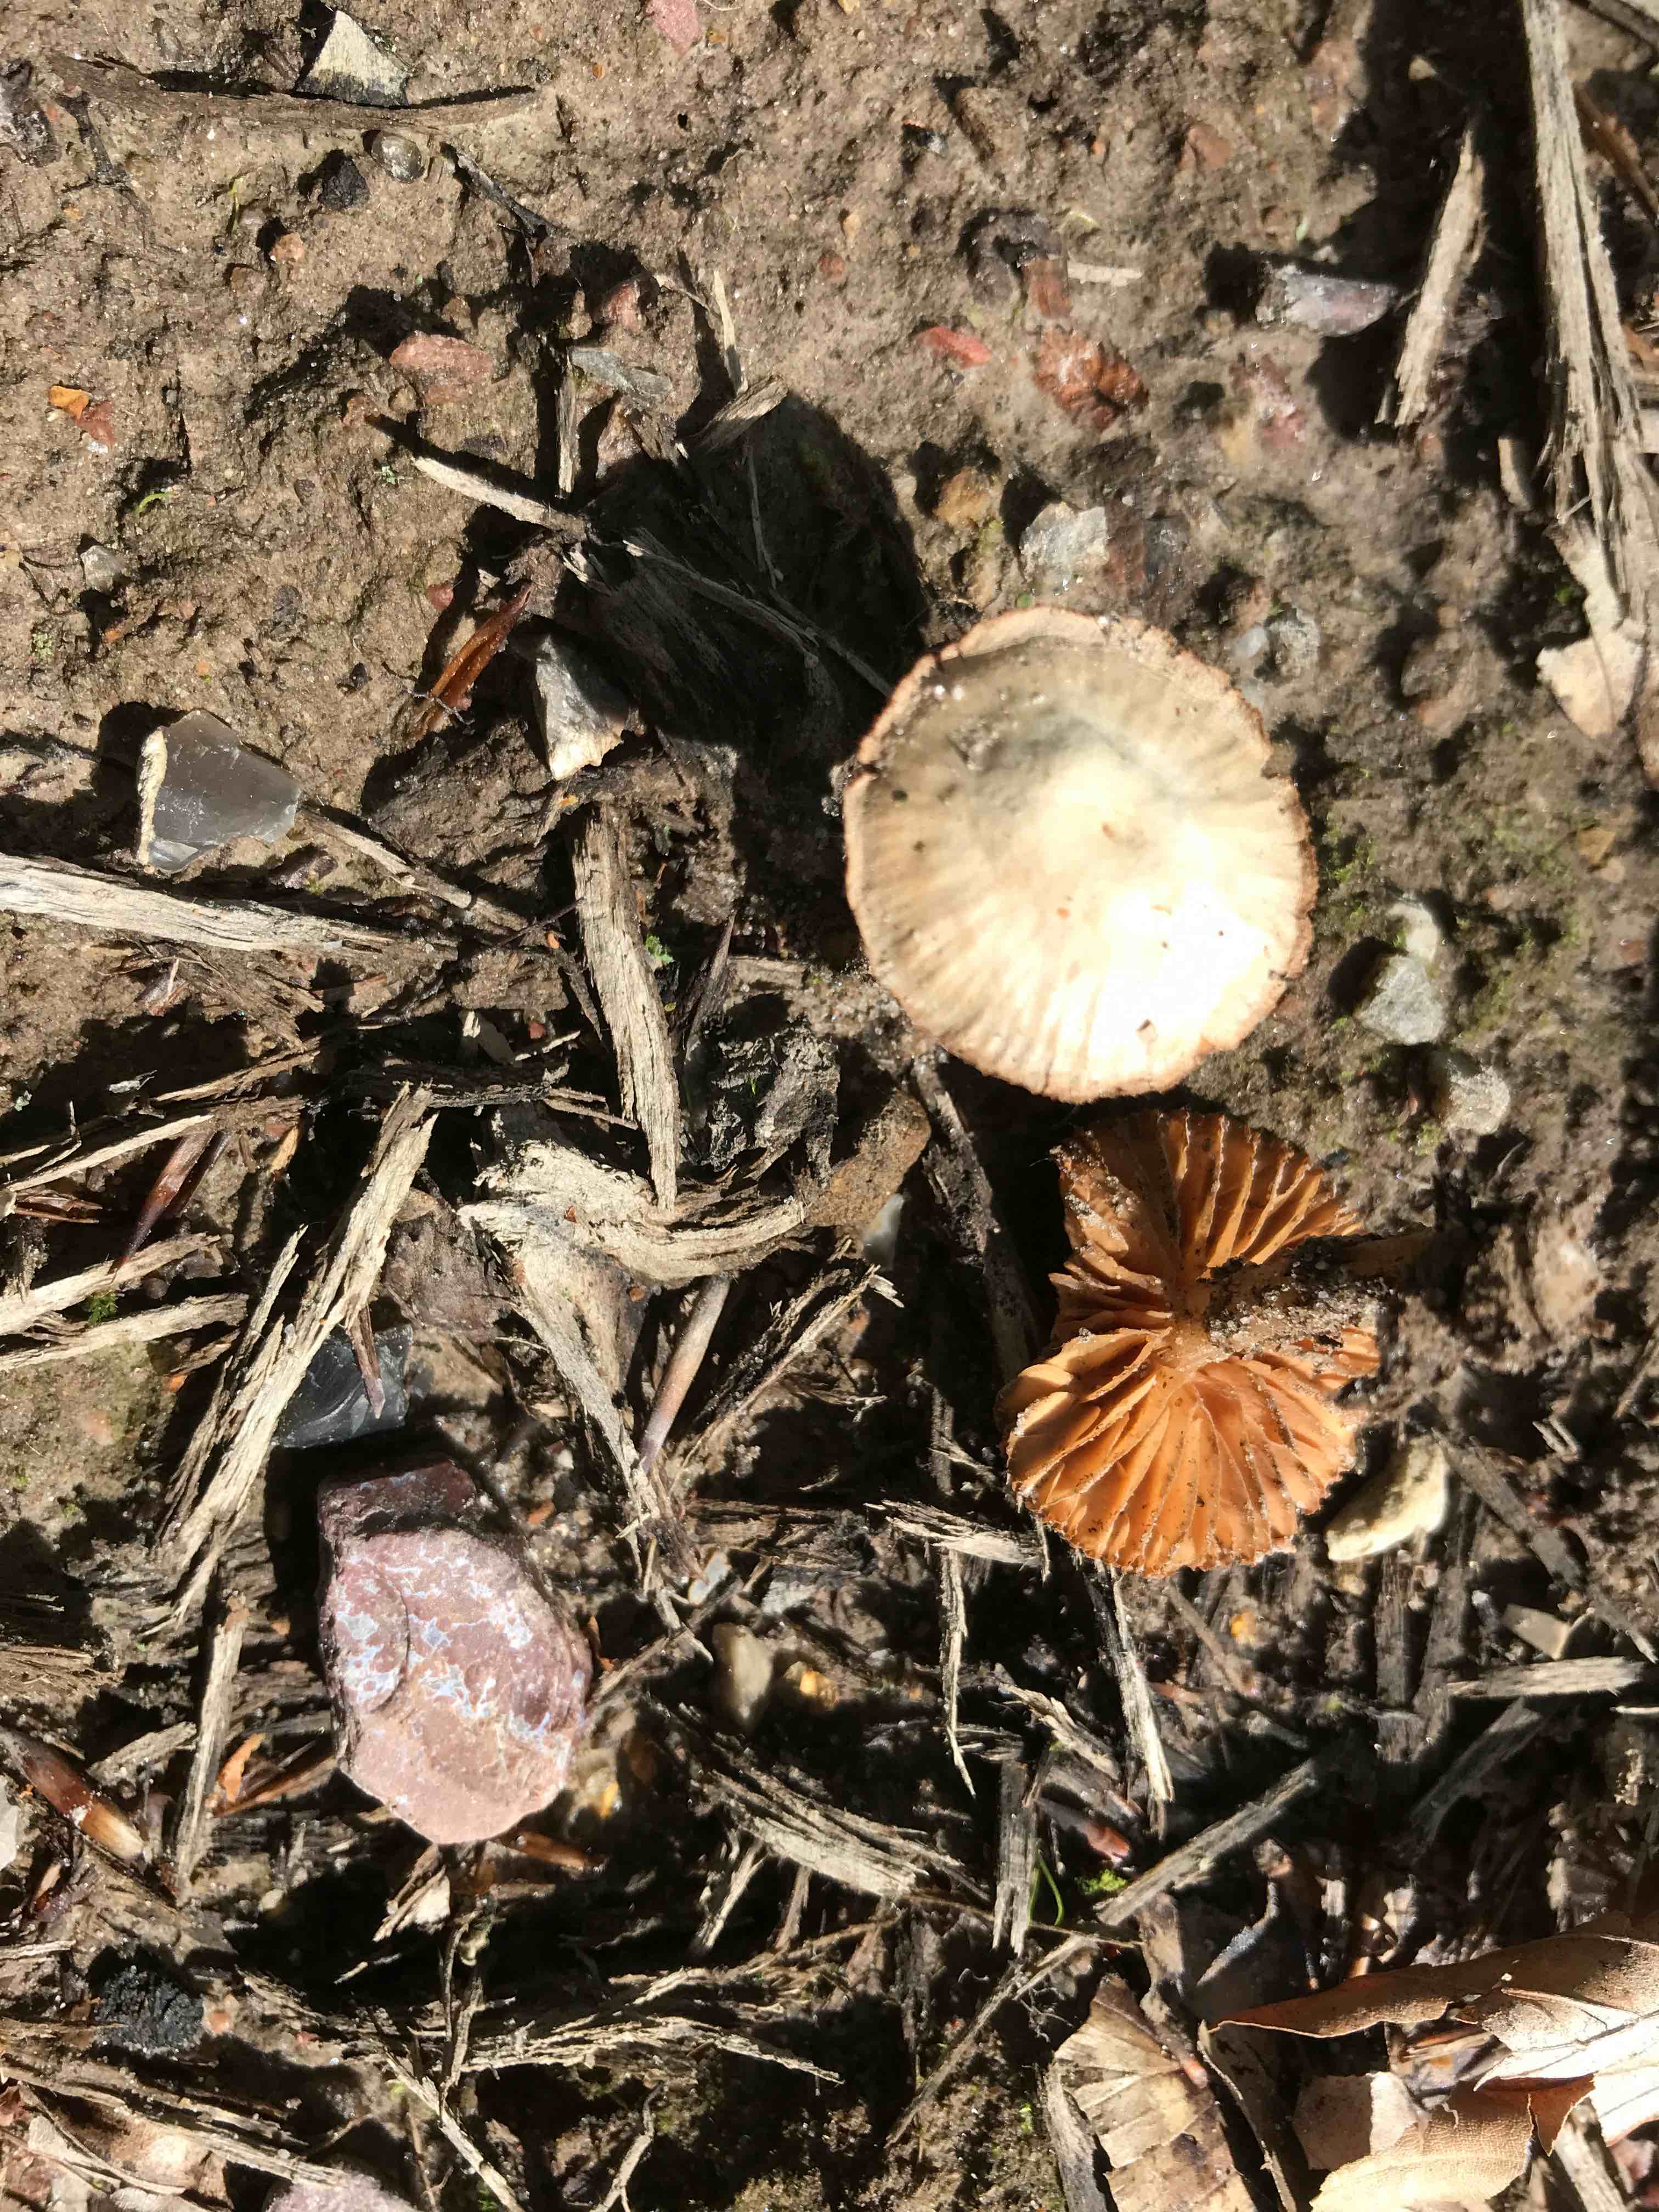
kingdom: Fungi
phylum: Basidiomycota
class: Agaricomycetes
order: Agaricales
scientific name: Agaricales
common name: champignonordenen
